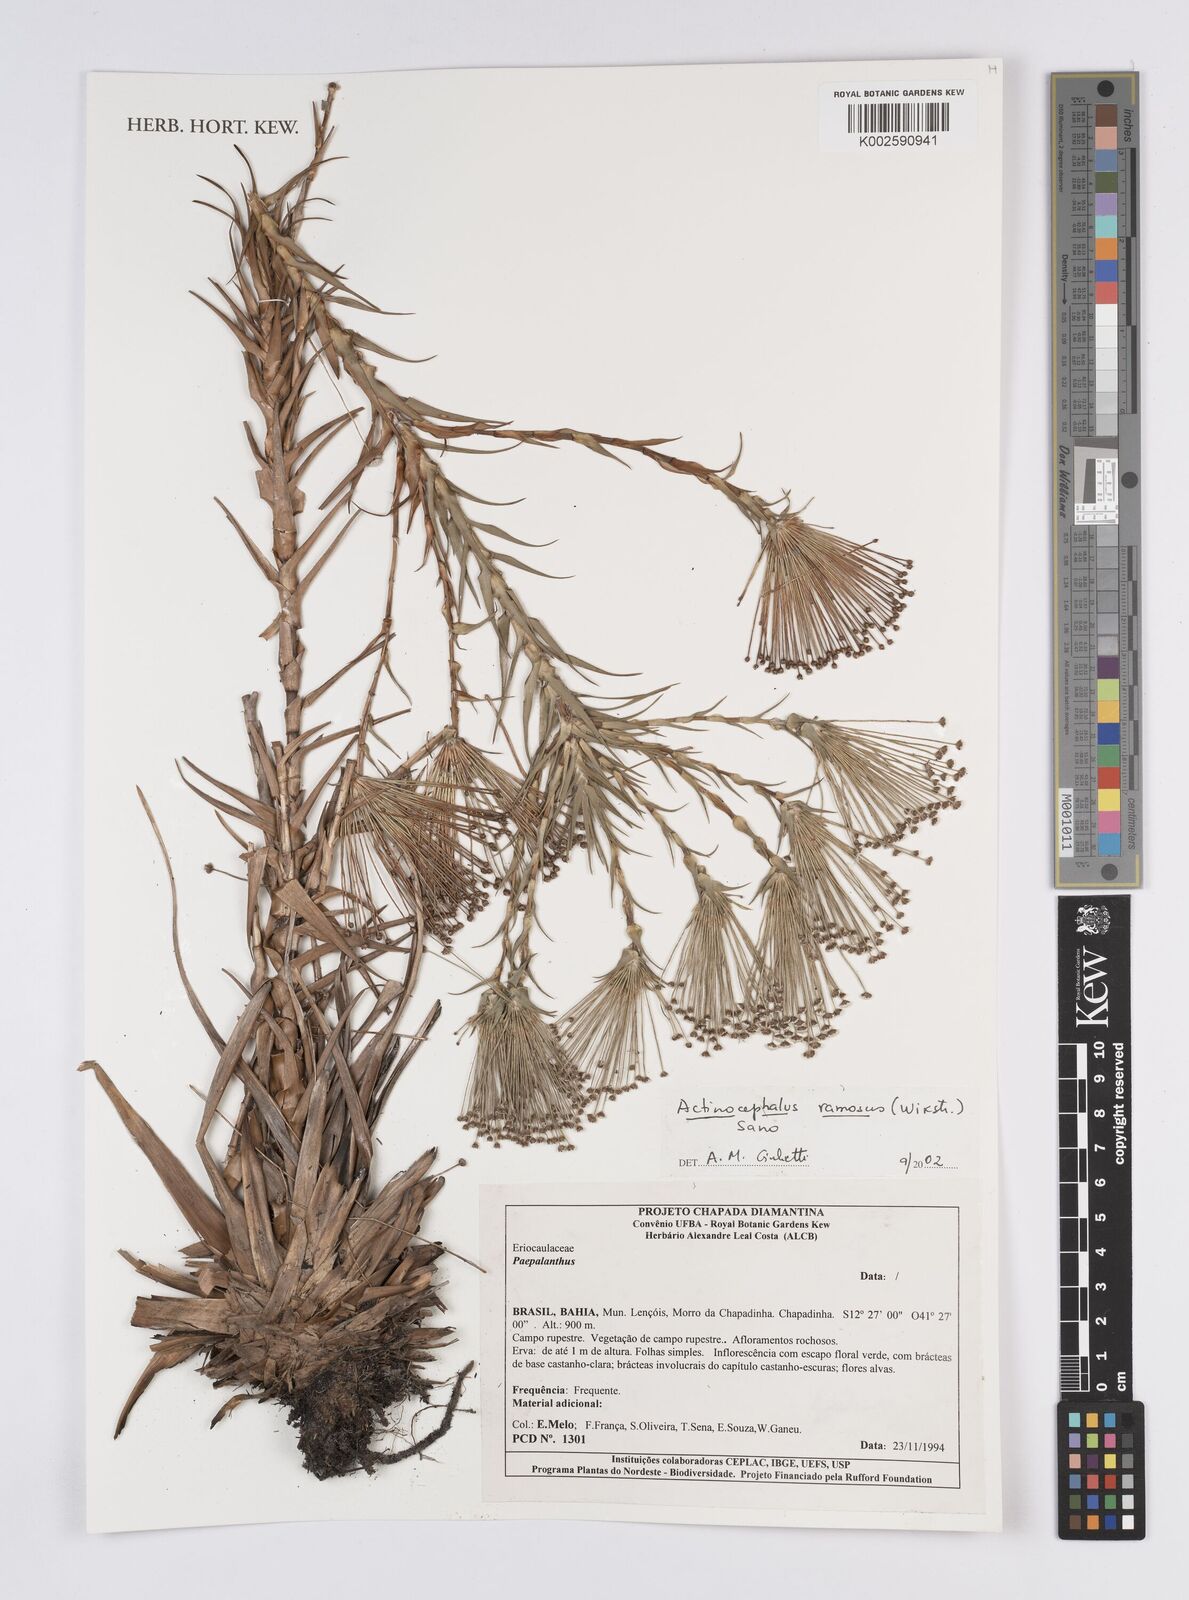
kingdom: Plantae
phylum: Tracheophyta
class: Liliopsida
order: Poales
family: Eriocaulaceae
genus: Paepalanthus
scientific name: Paepalanthus ramosus
